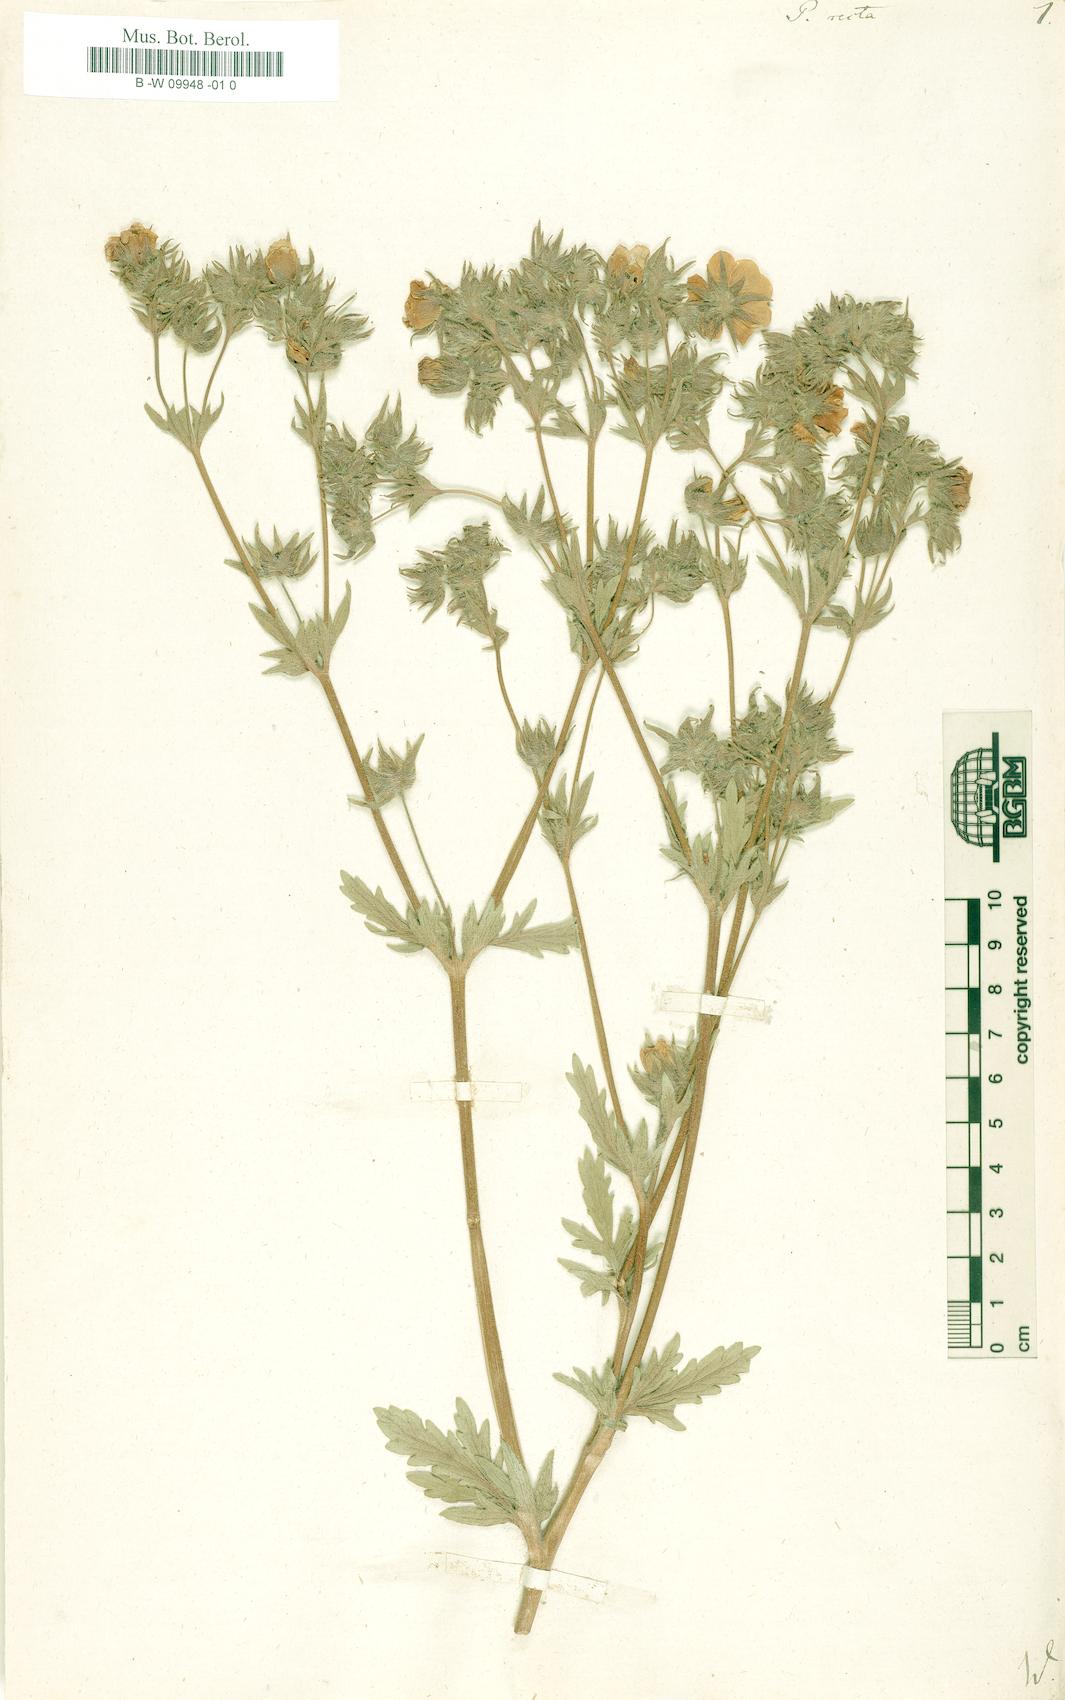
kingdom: Plantae
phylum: Tracheophyta
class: Magnoliopsida
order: Rosales
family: Rosaceae
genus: Potentilla
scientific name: Potentilla recta
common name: Sulphur cinquefoil
